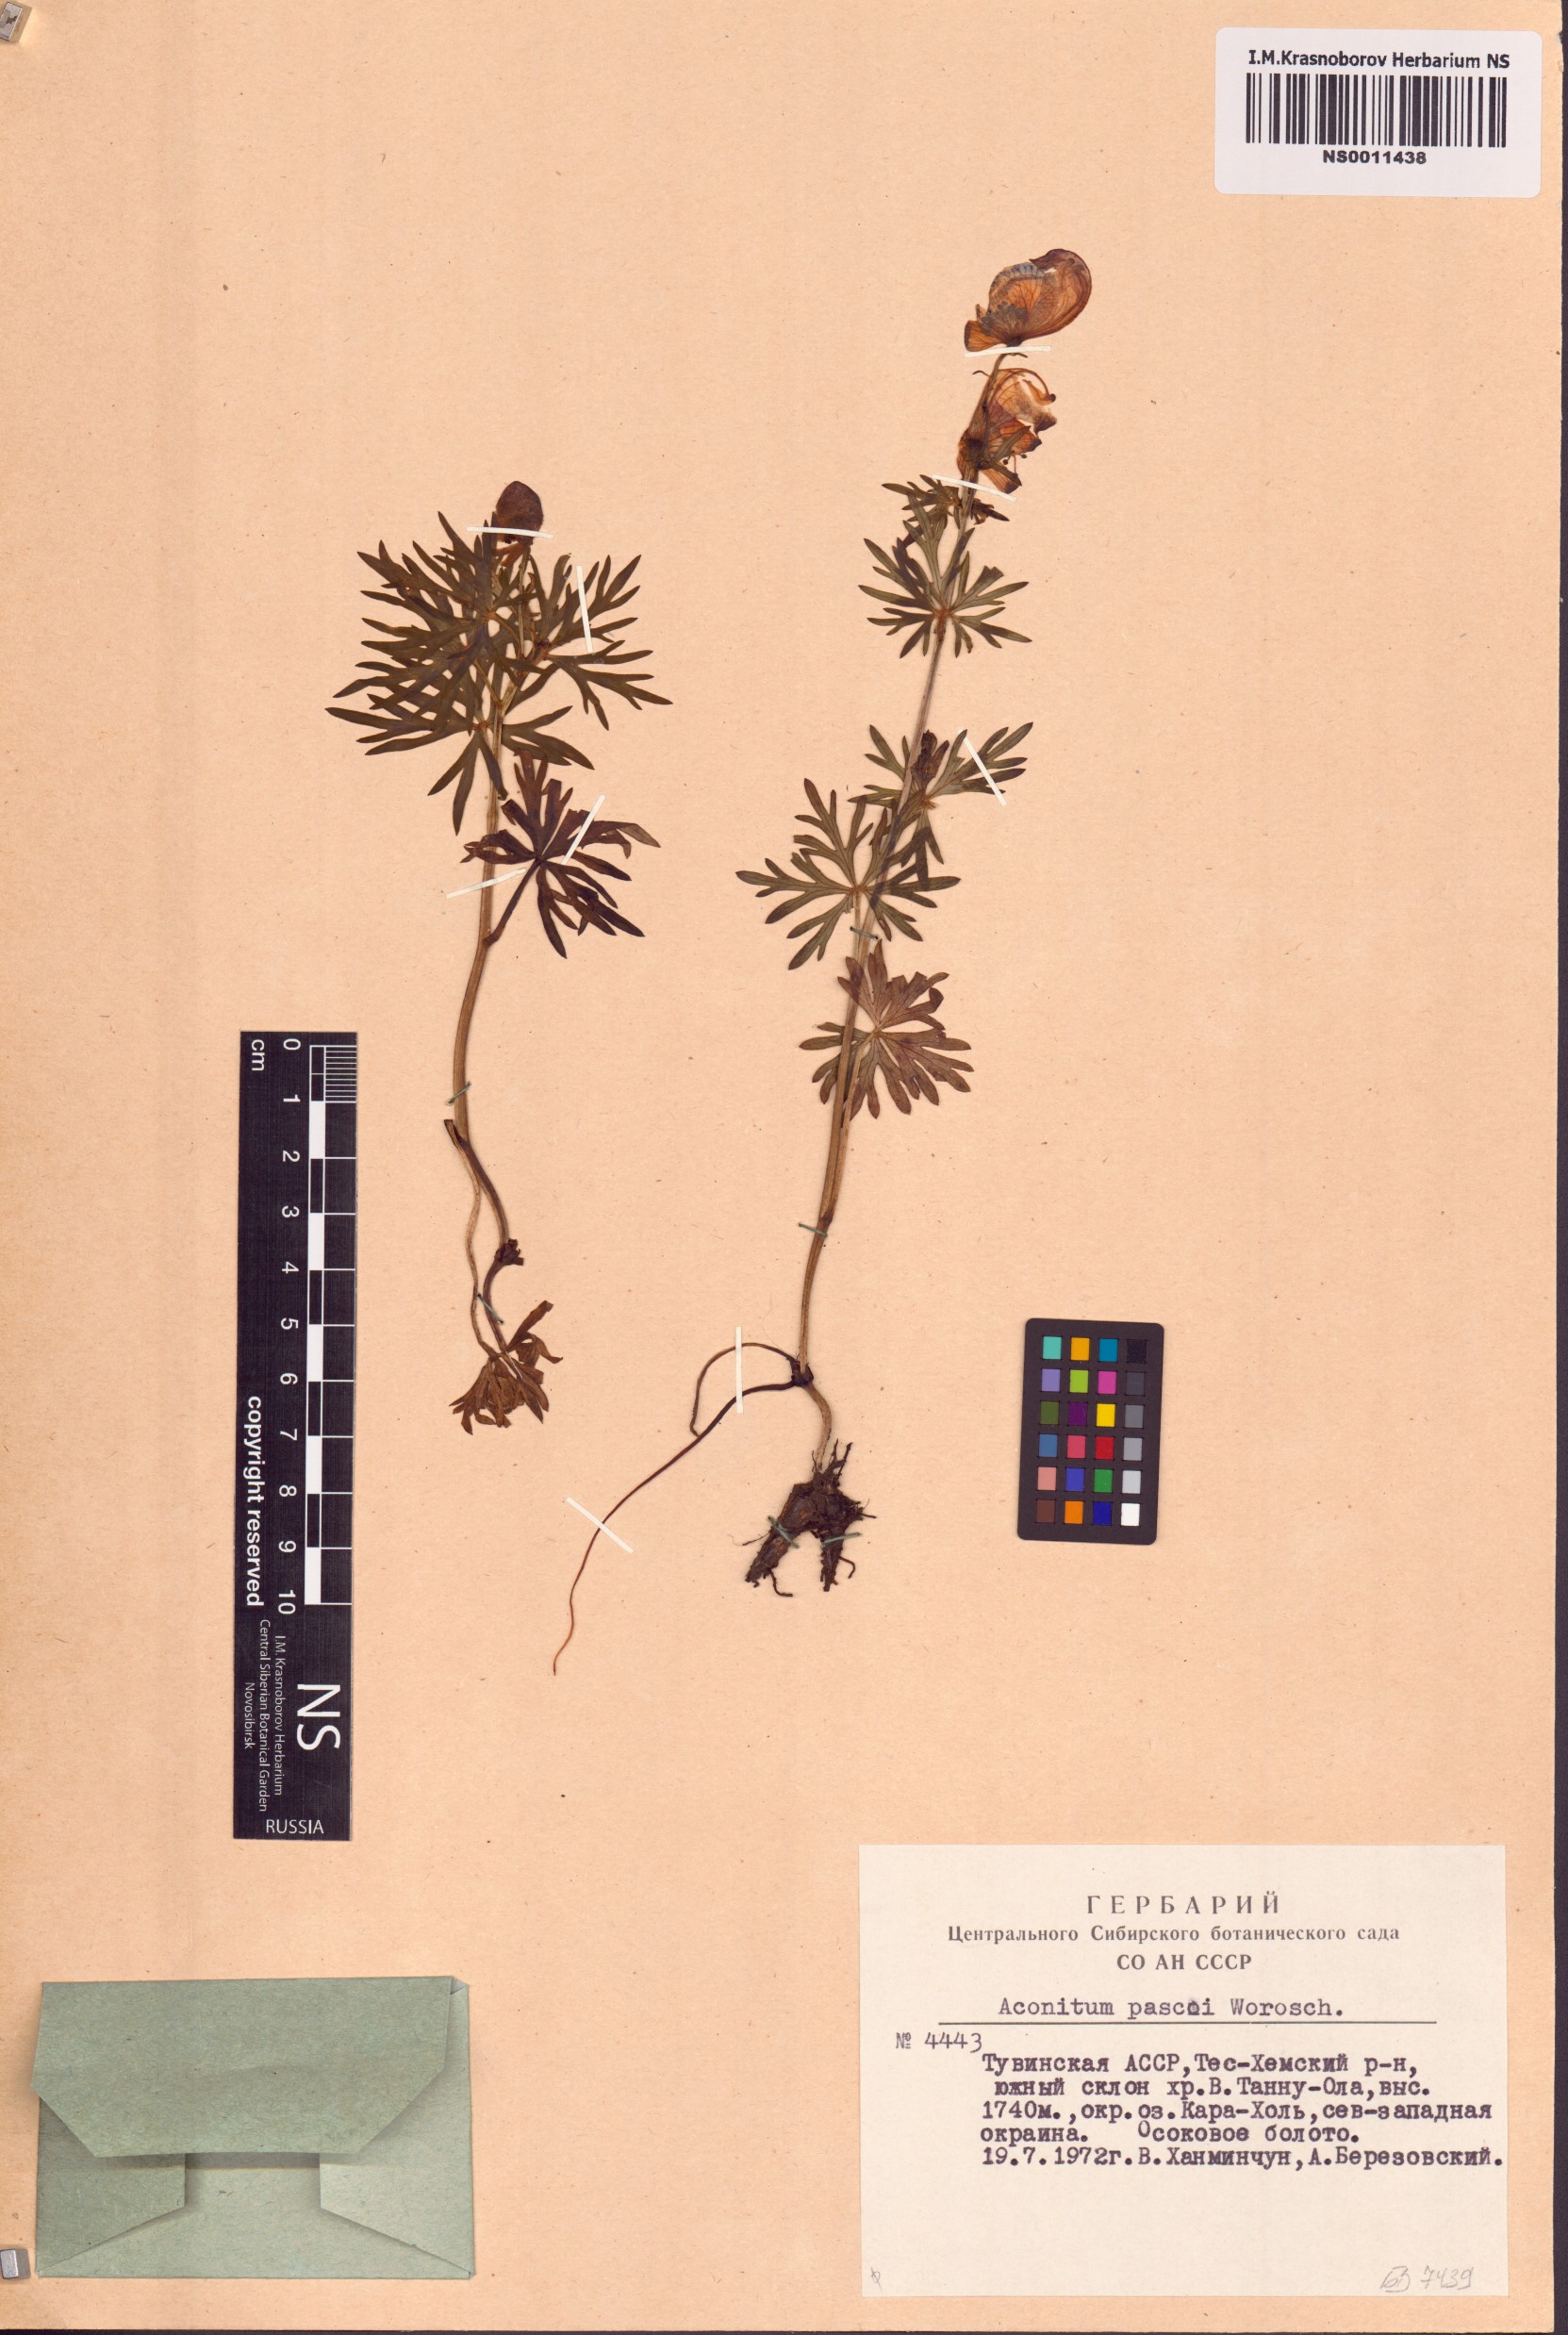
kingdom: Plantae
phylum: Tracheophyta
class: Magnoliopsida
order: Ranunculales
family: Ranunculaceae
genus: Aconitum
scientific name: Aconitum pascoi
